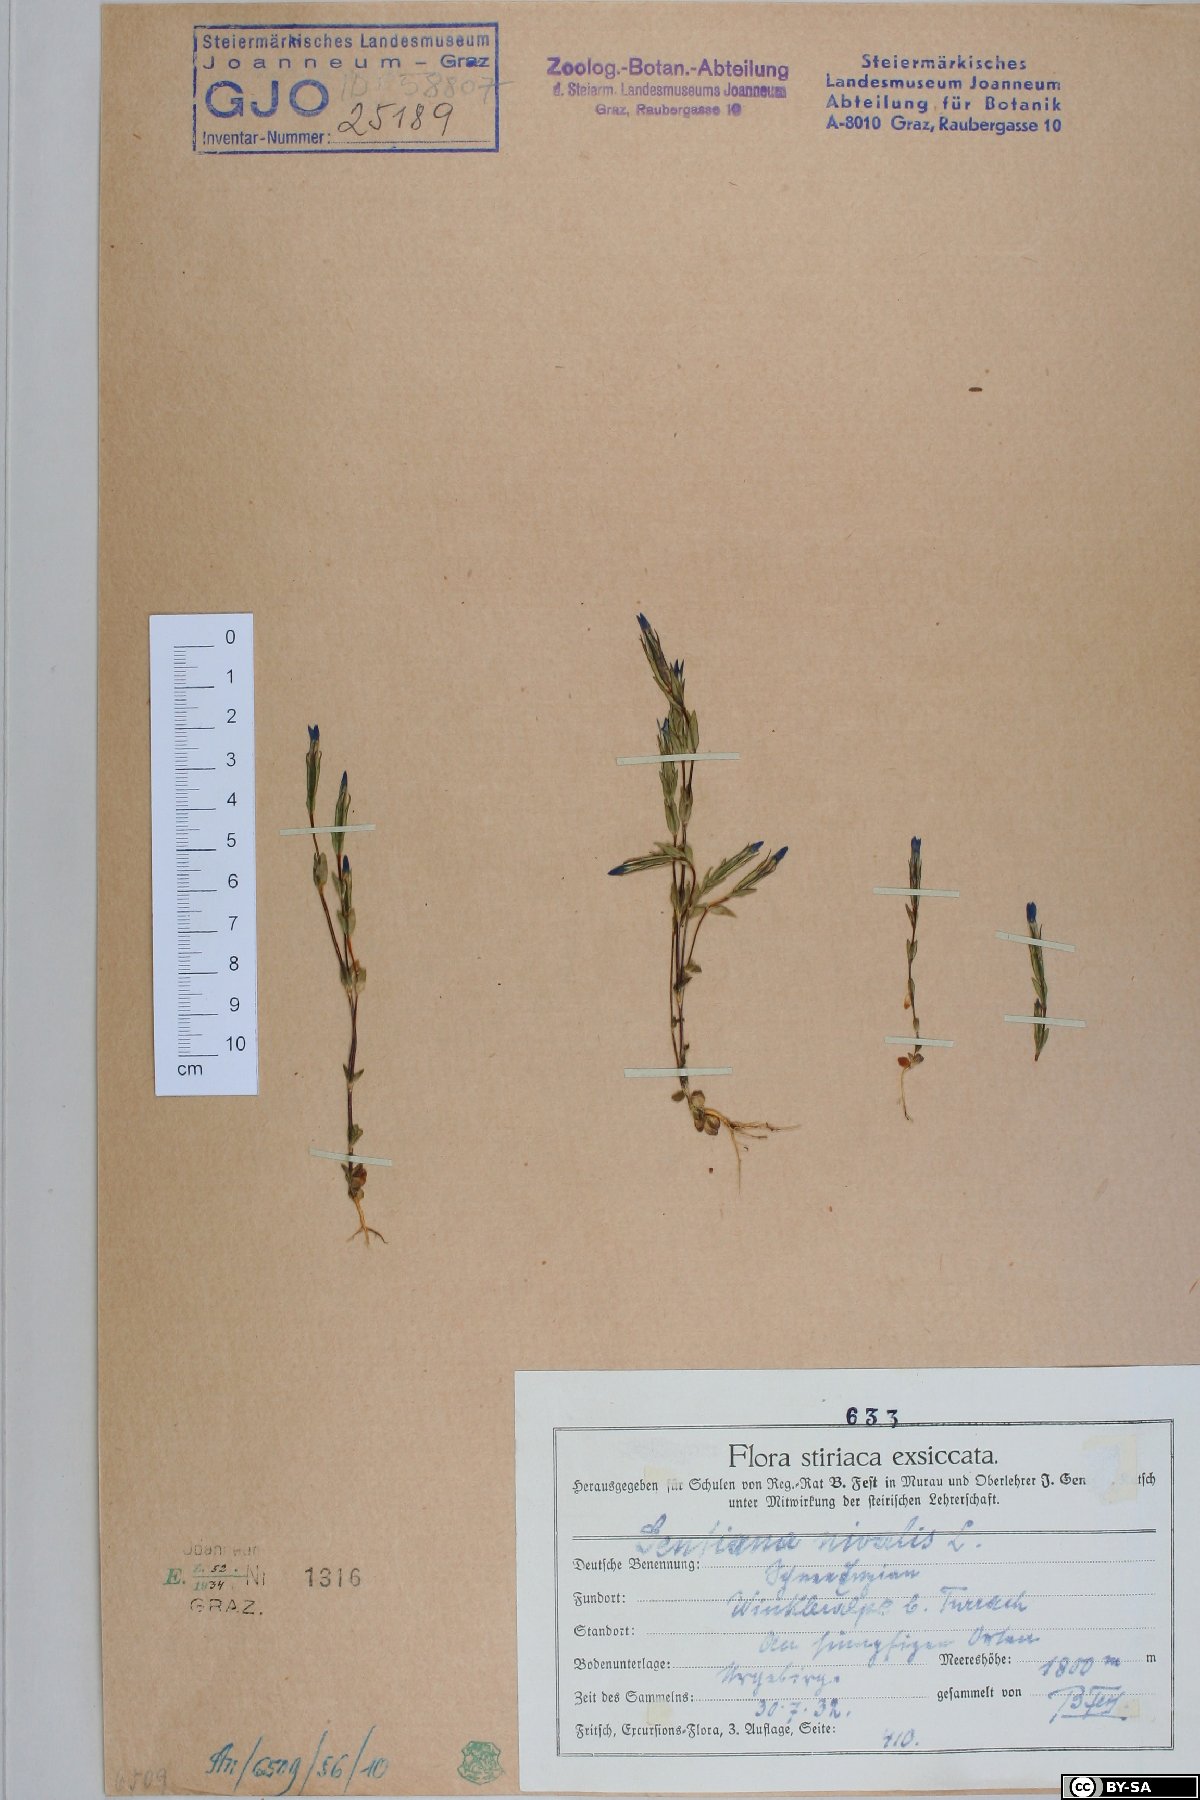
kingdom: Plantae
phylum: Tracheophyta
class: Magnoliopsida
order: Gentianales
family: Gentianaceae
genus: Gentiana
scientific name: Gentiana nivalis
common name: Alpine gentian
